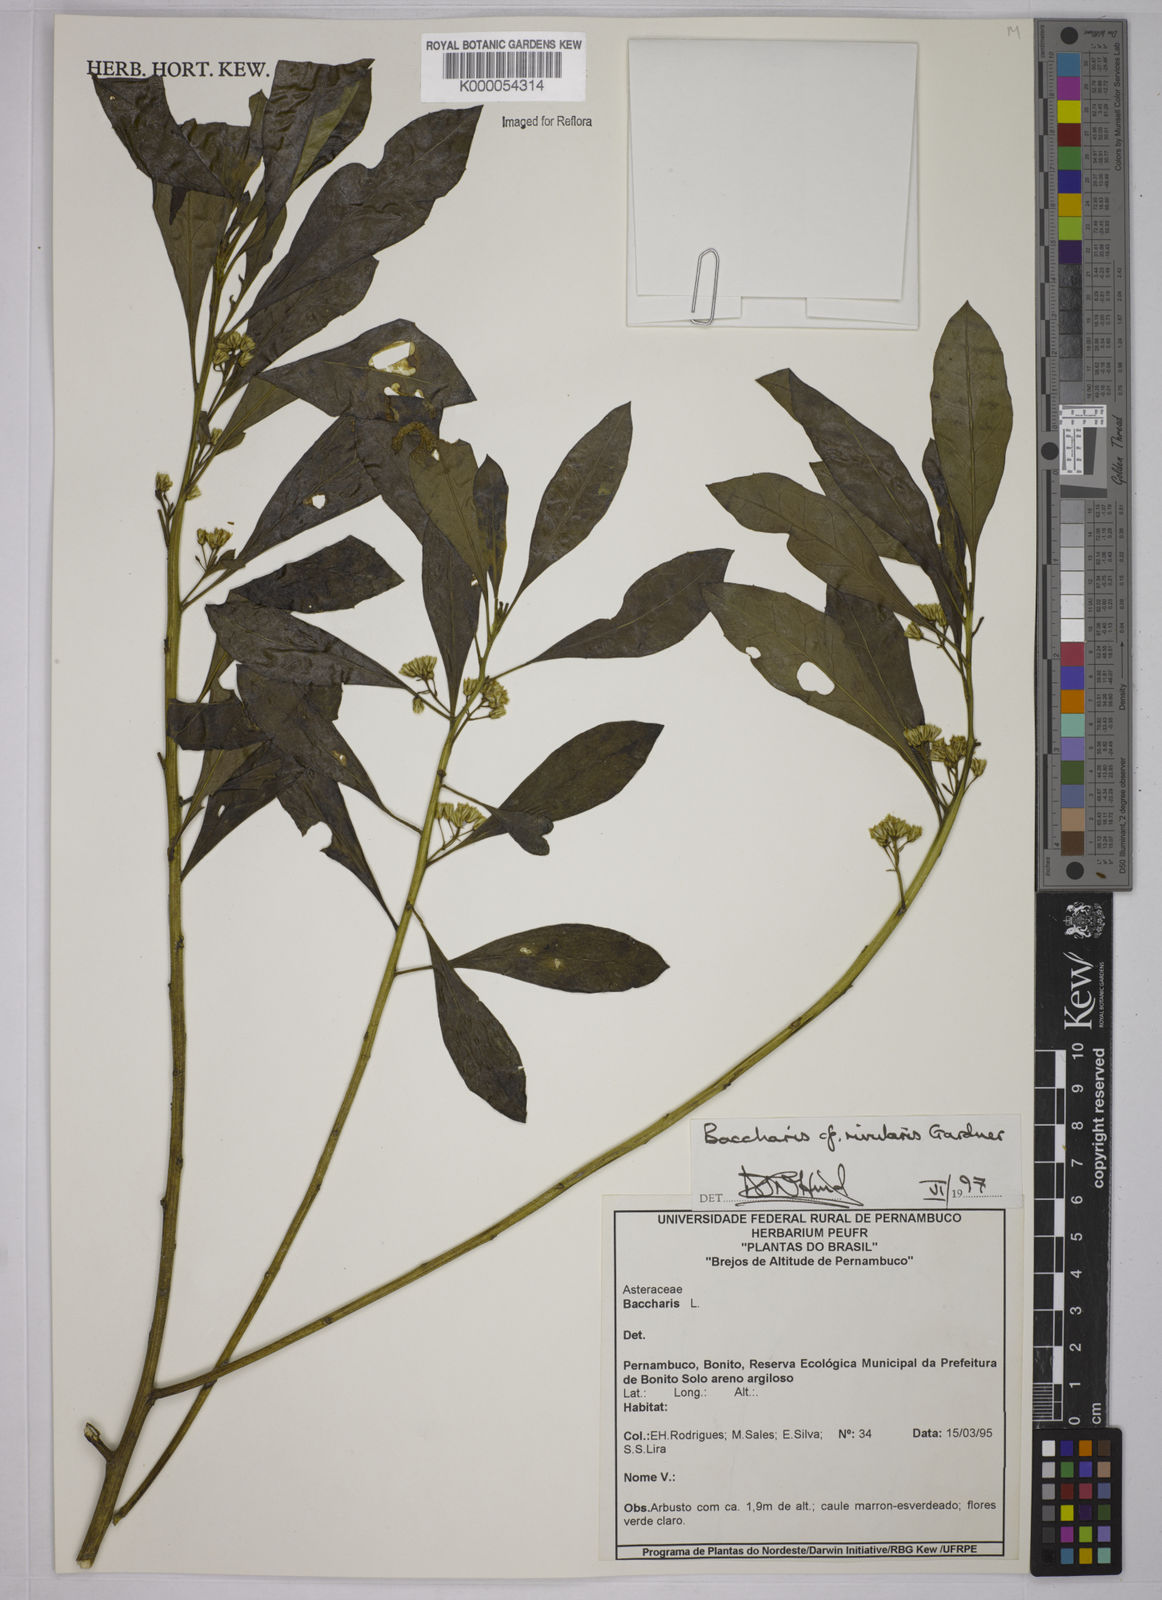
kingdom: Plantae
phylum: Tracheophyta
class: Magnoliopsida
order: Asterales
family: Asteraceae
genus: Baccharis
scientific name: Baccharis rivularis
